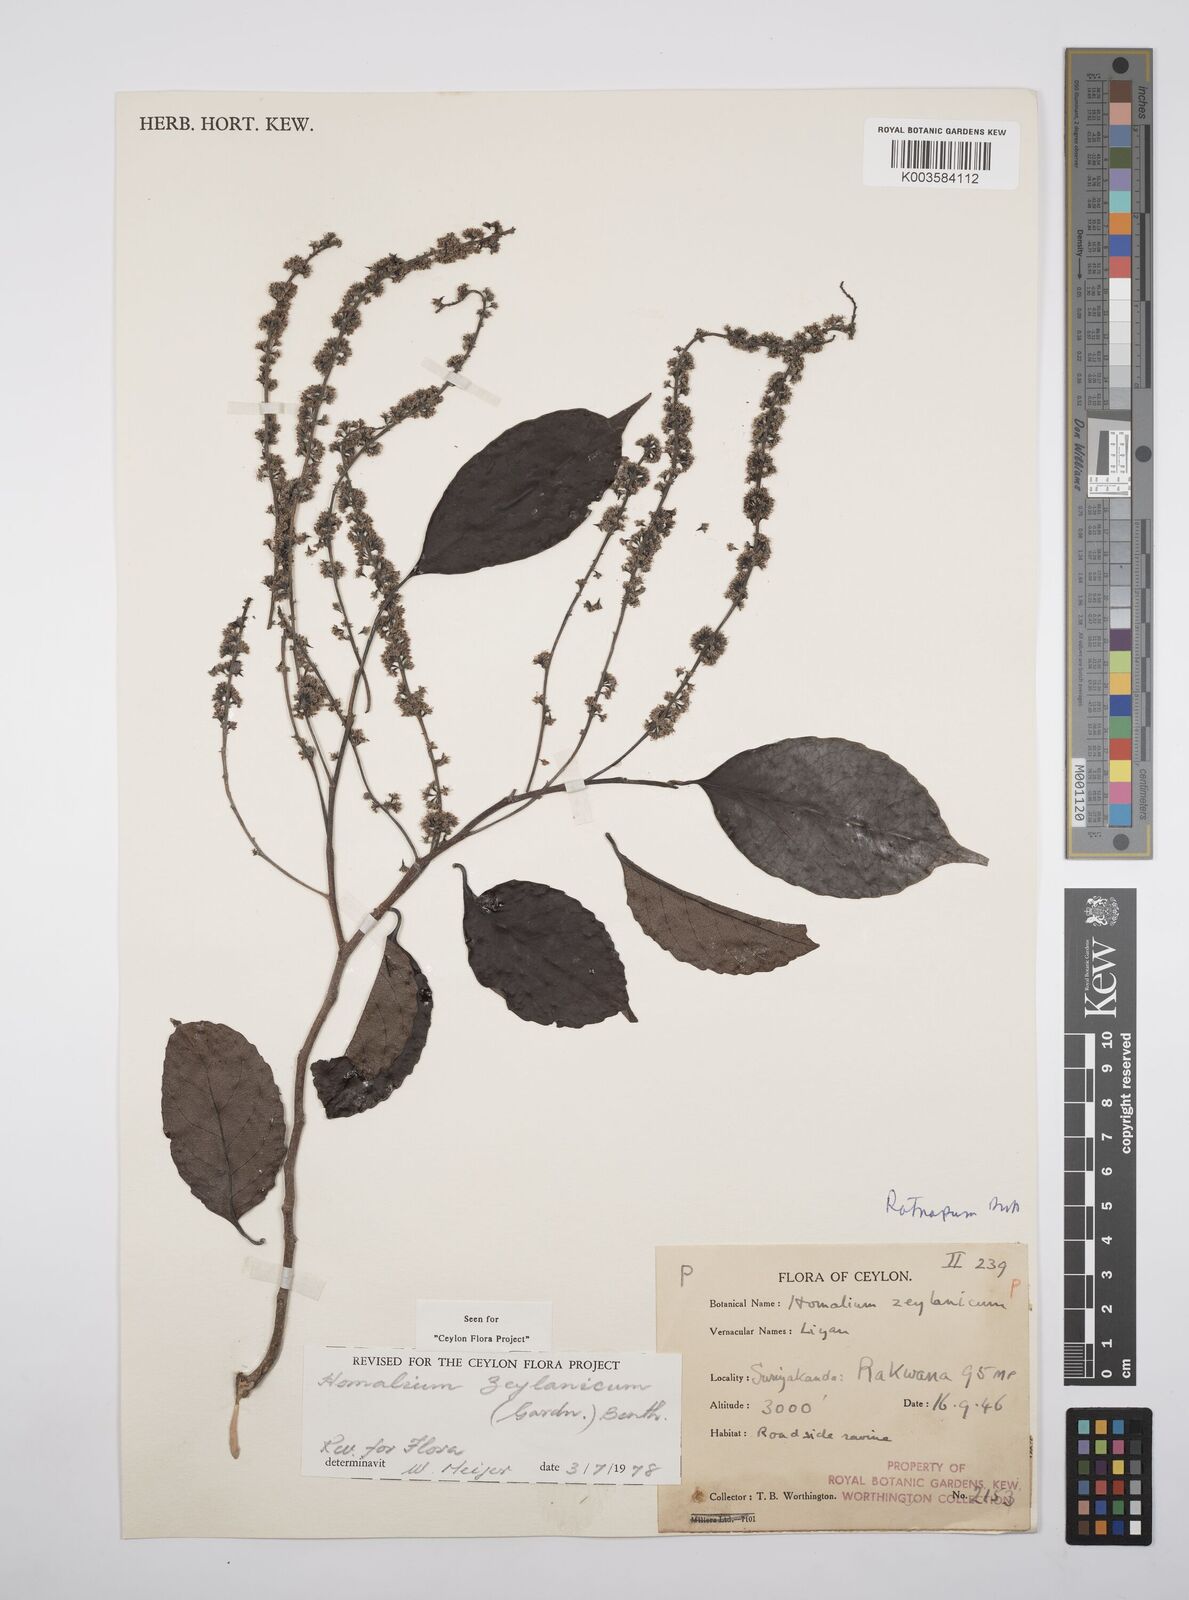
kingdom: Plantae
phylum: Tracheophyta
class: Magnoliopsida
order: Malpighiales
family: Salicaceae
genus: Homalium
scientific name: Homalium ceylanicum
